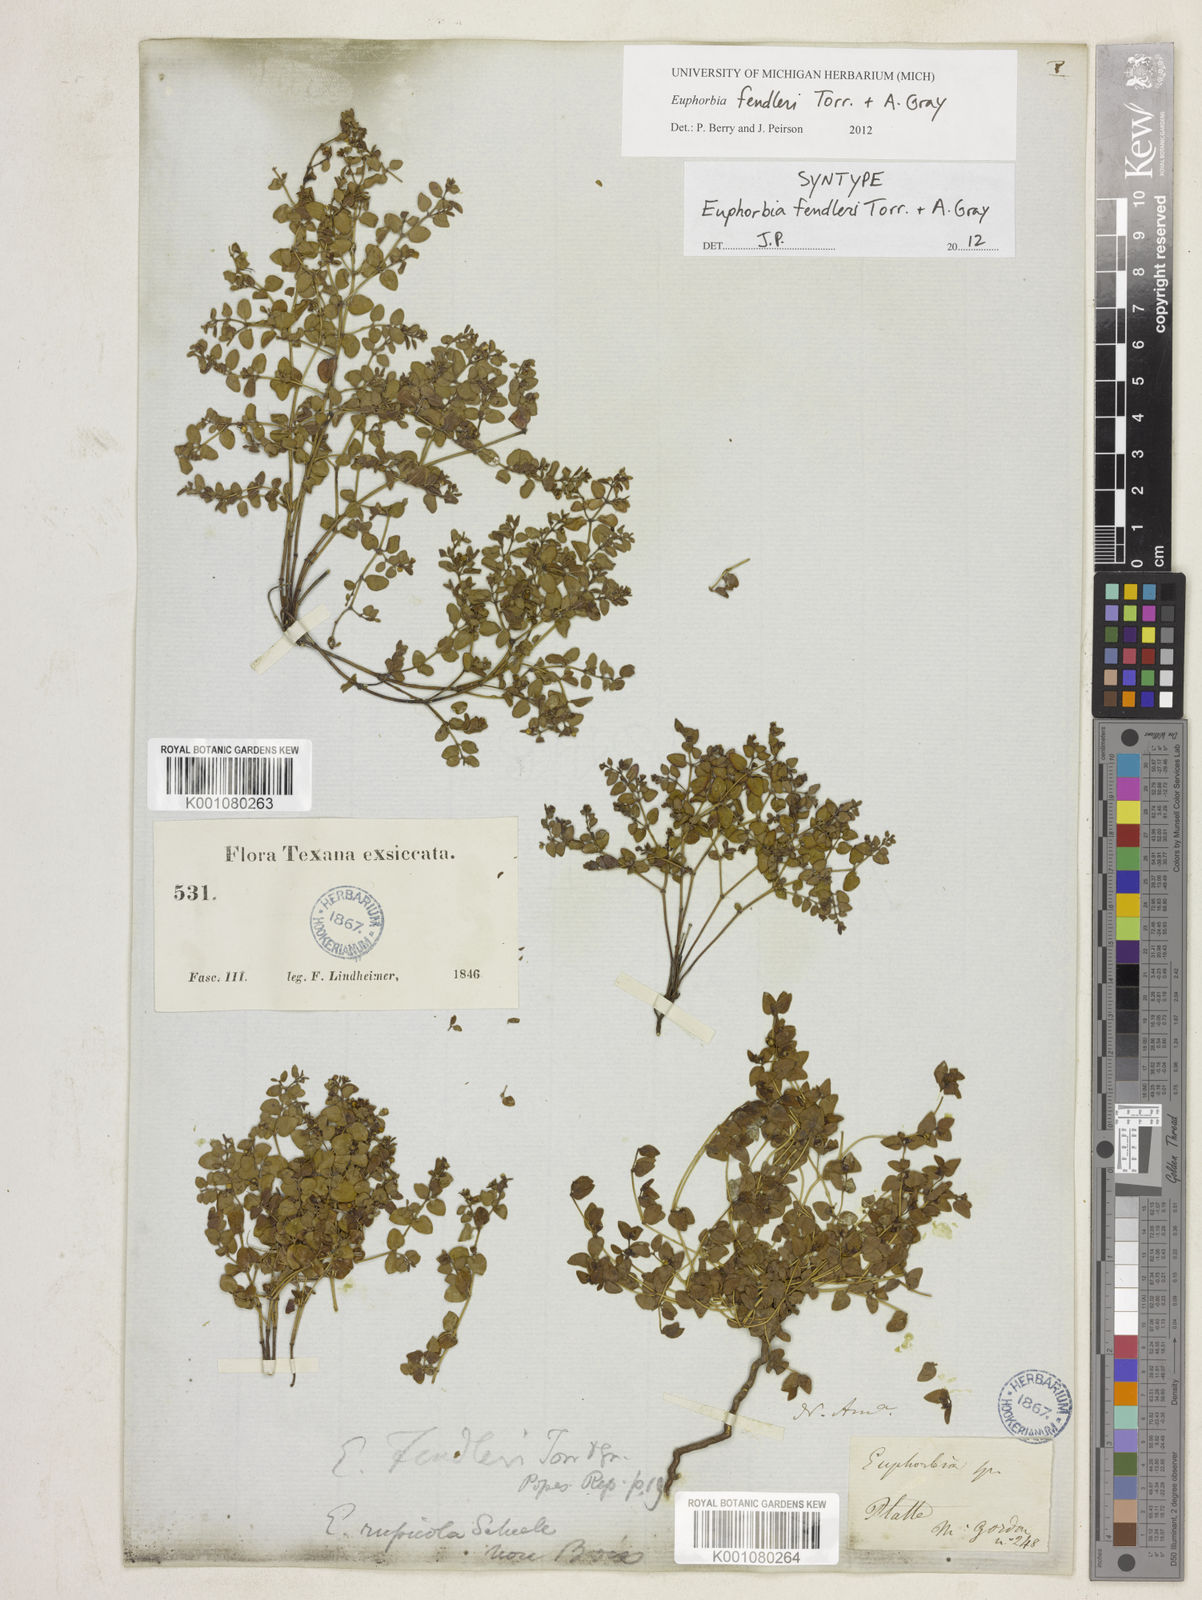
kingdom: Plantae
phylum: Tracheophyta
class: Magnoliopsida
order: Malpighiales
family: Euphorbiaceae
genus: Euphorbia
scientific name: Euphorbia fendleri
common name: Fendler's euphorbia
